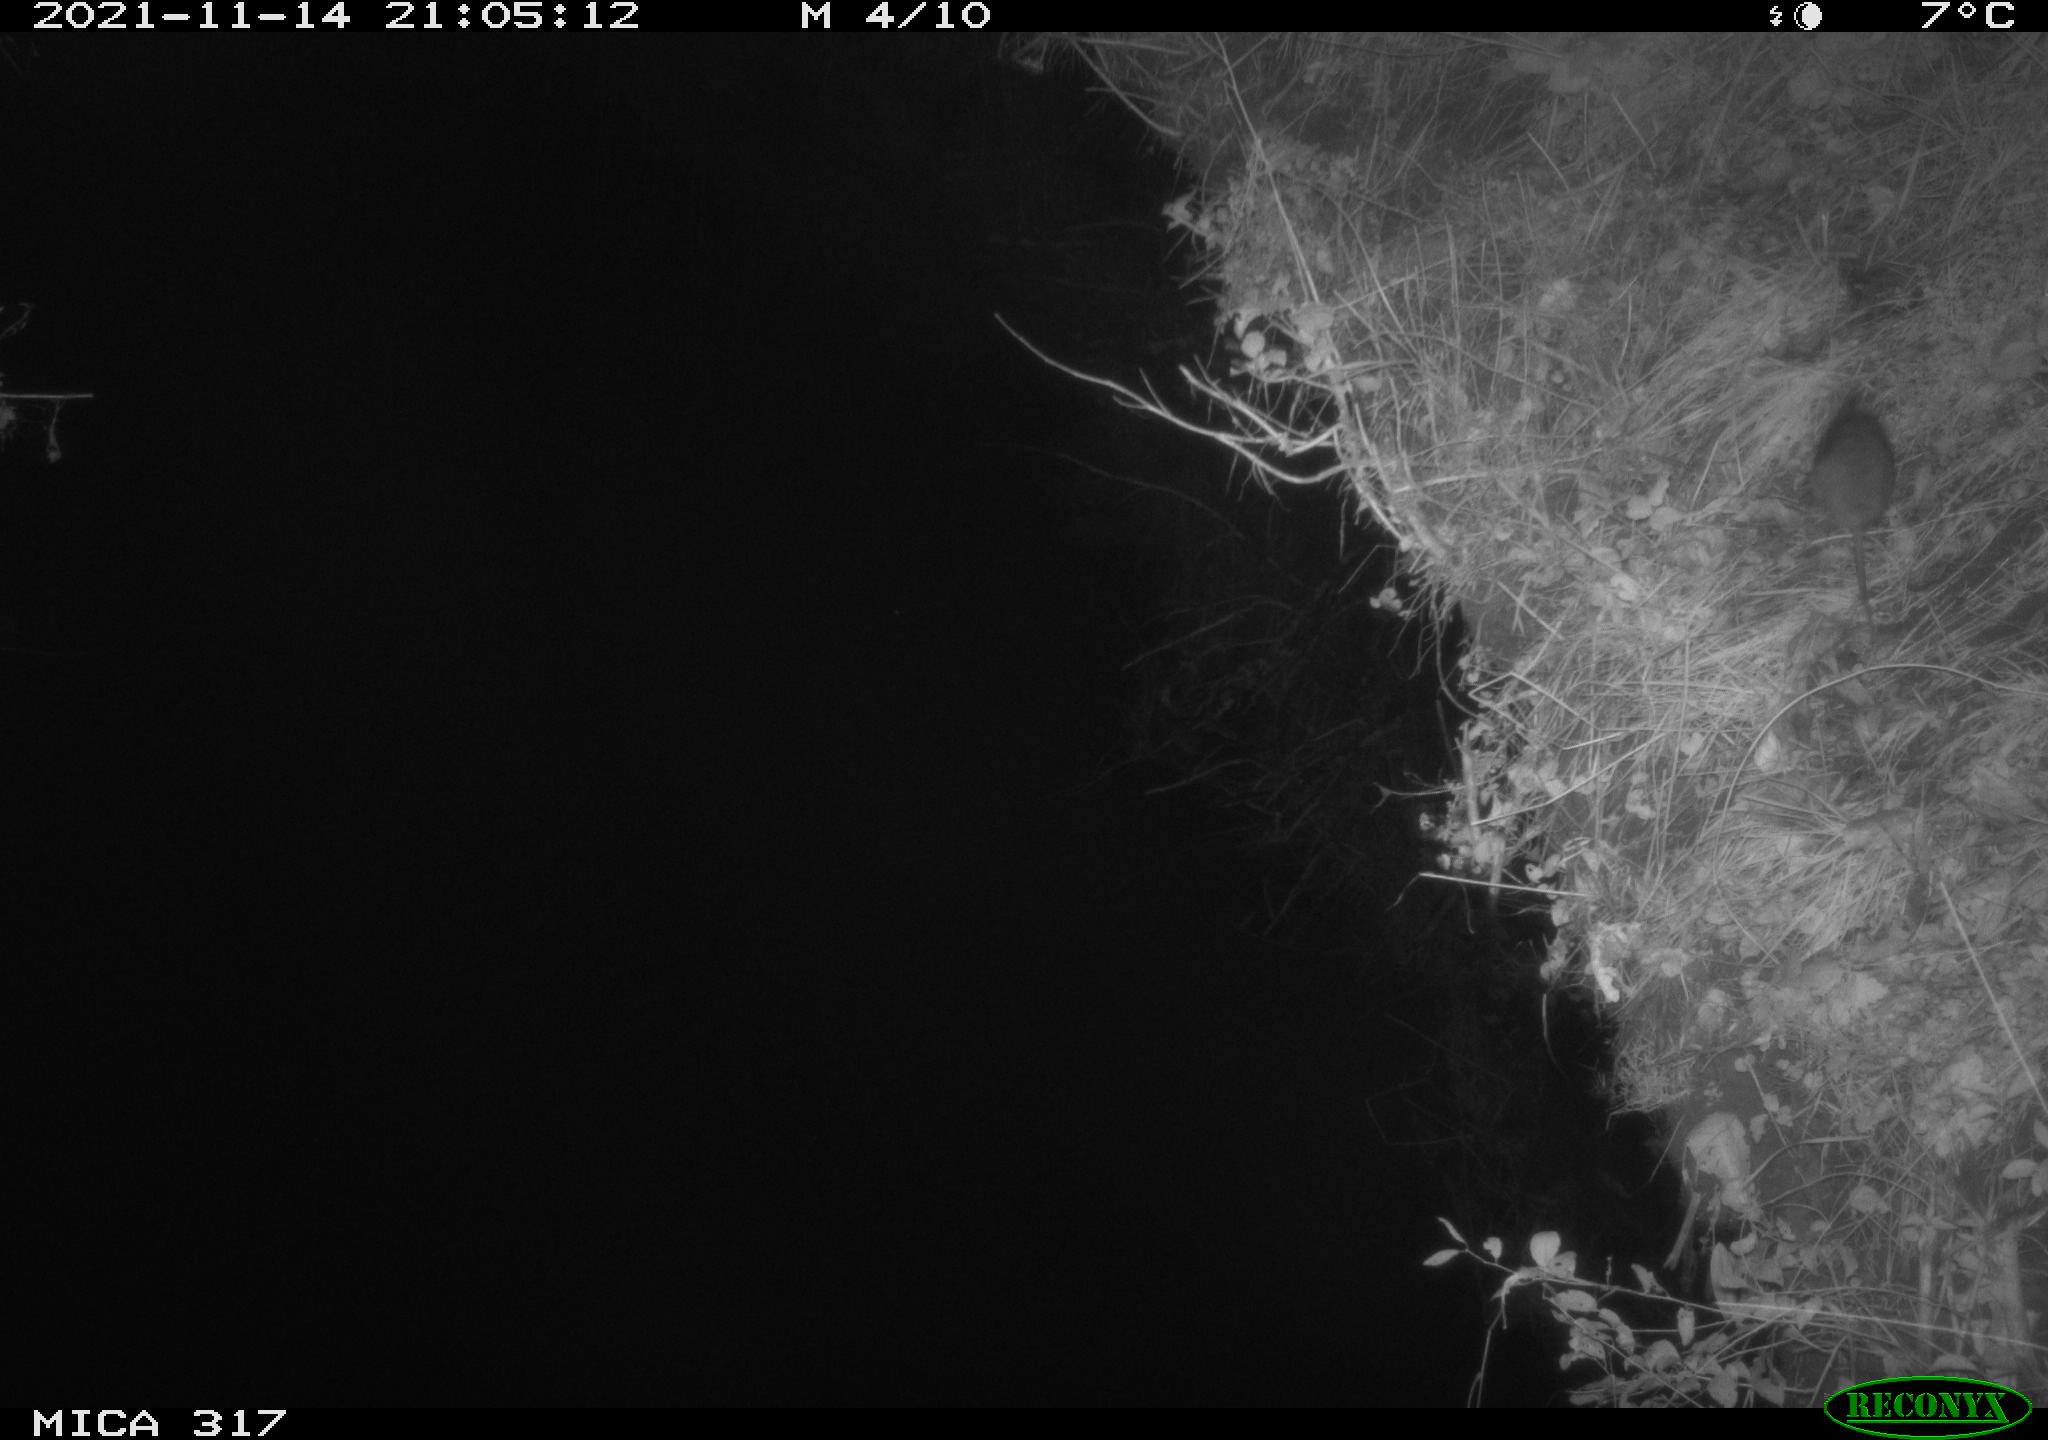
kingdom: Animalia
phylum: Chordata
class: Mammalia
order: Rodentia
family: Muridae
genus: Rattus
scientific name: Rattus norvegicus
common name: Brown rat
